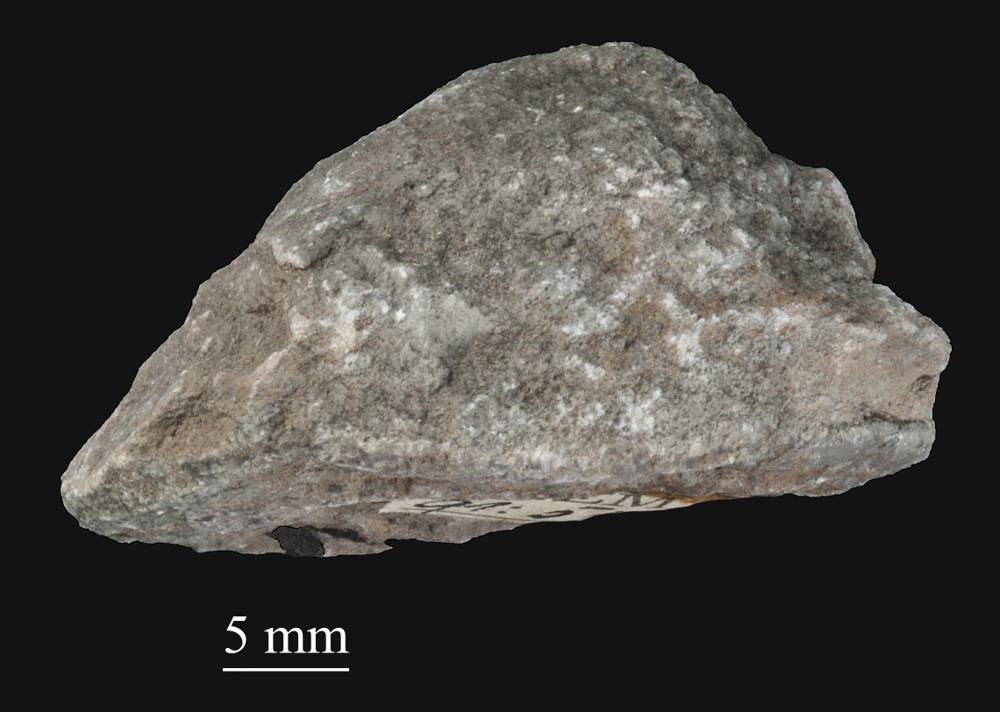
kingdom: Animalia
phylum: Bryozoa
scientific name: Bryozoa
